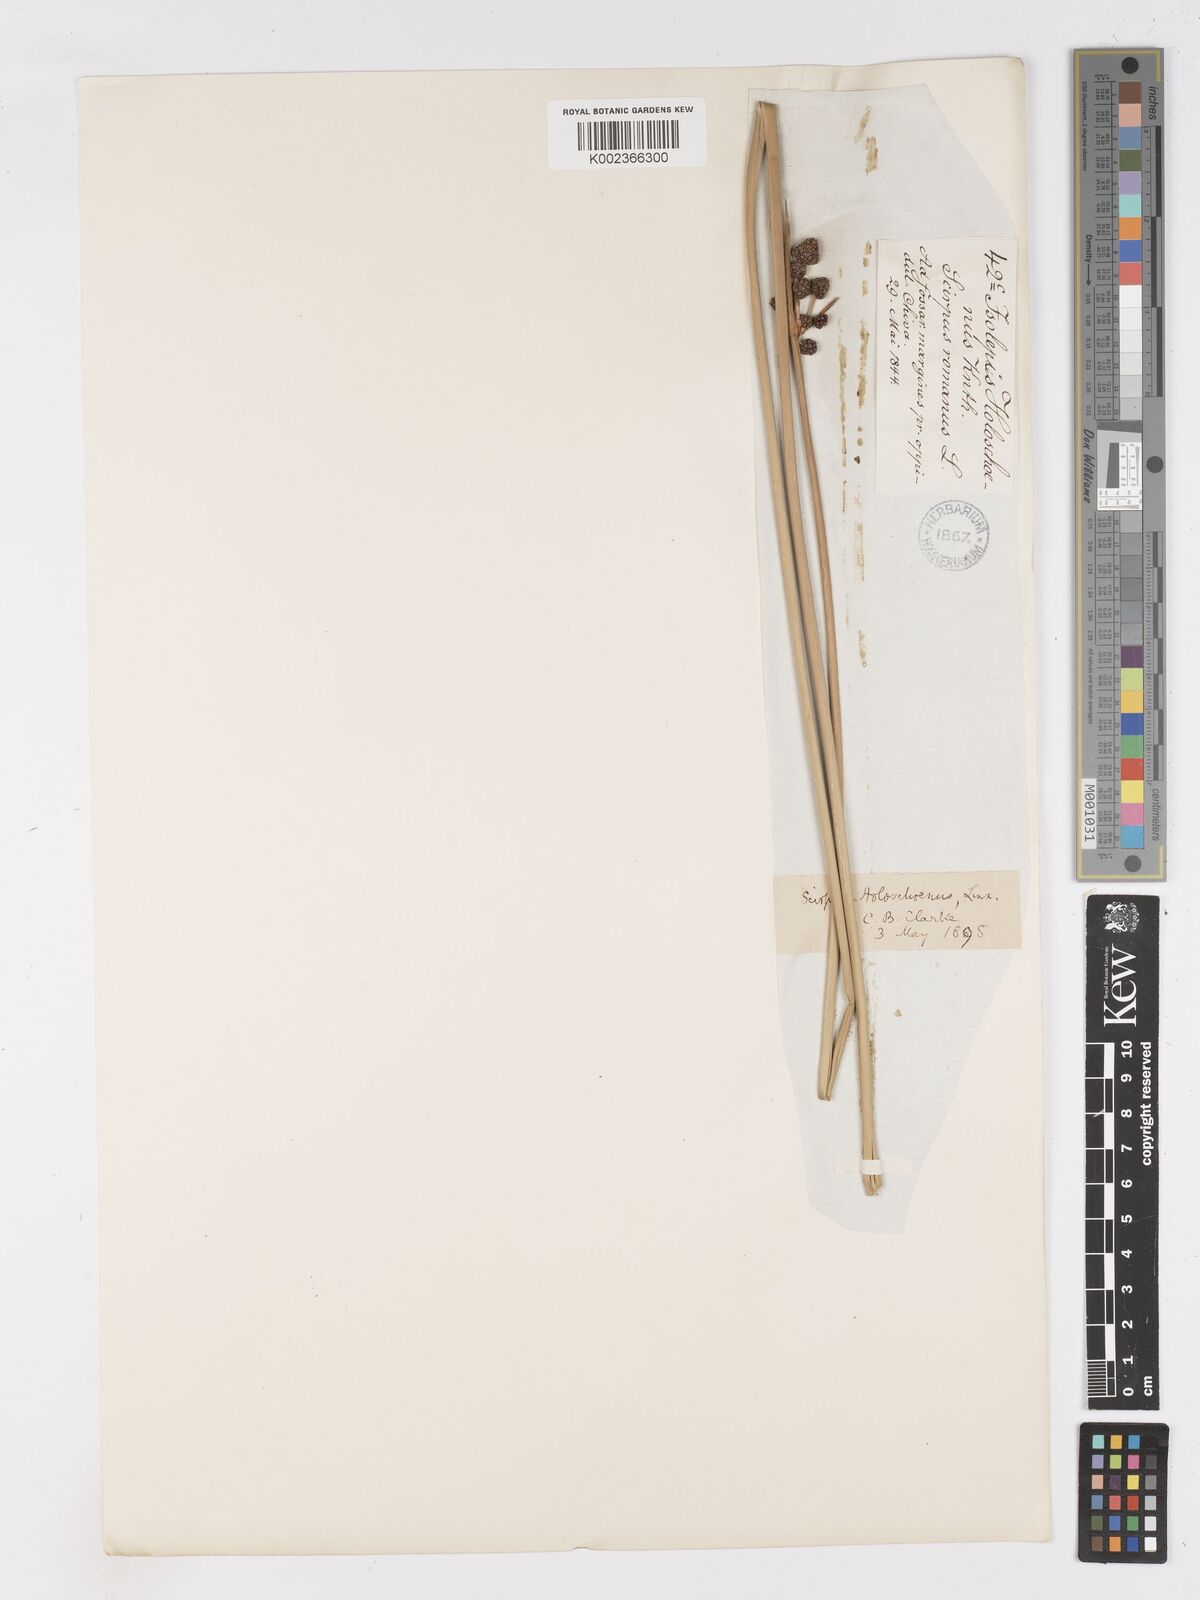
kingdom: Plantae
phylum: Tracheophyta
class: Liliopsida
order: Poales
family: Cyperaceae
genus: Scirpoides
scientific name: Scirpoides holoschoenus
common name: Round-headed club-rush
